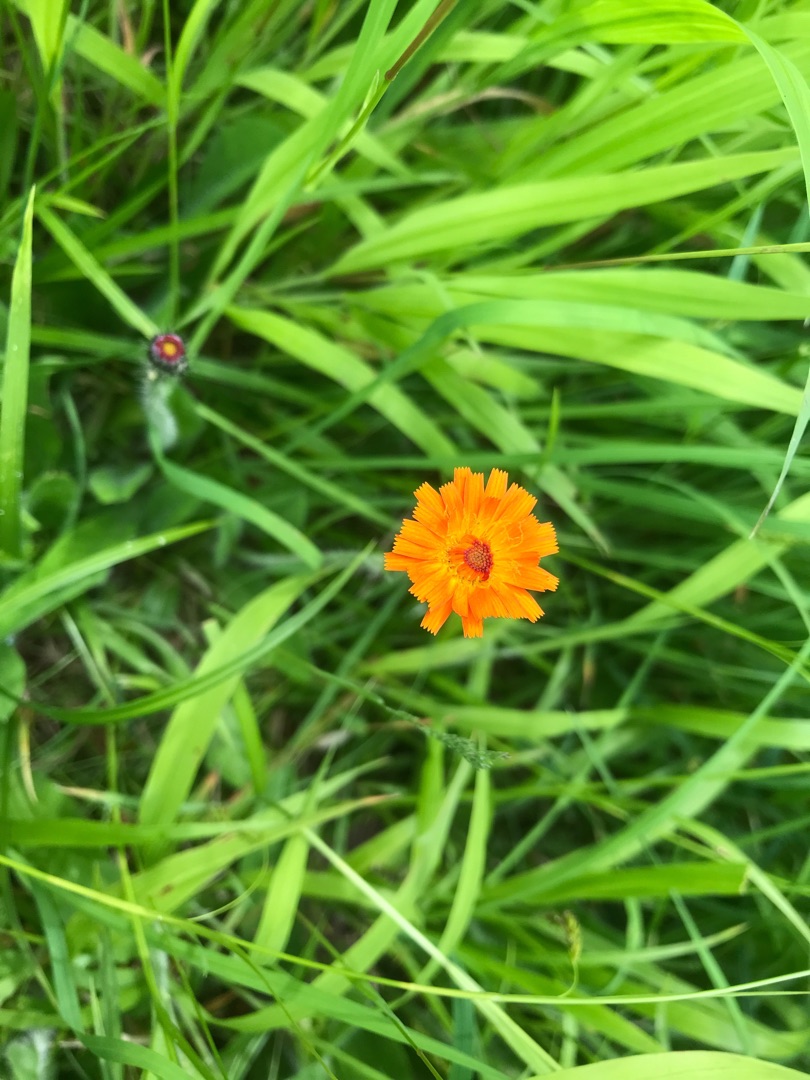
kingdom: Plantae
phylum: Tracheophyta
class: Magnoliopsida
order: Asterales
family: Asteraceae
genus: Pilosella
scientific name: Pilosella aurantiaca
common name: Pomerans-høgeurt
